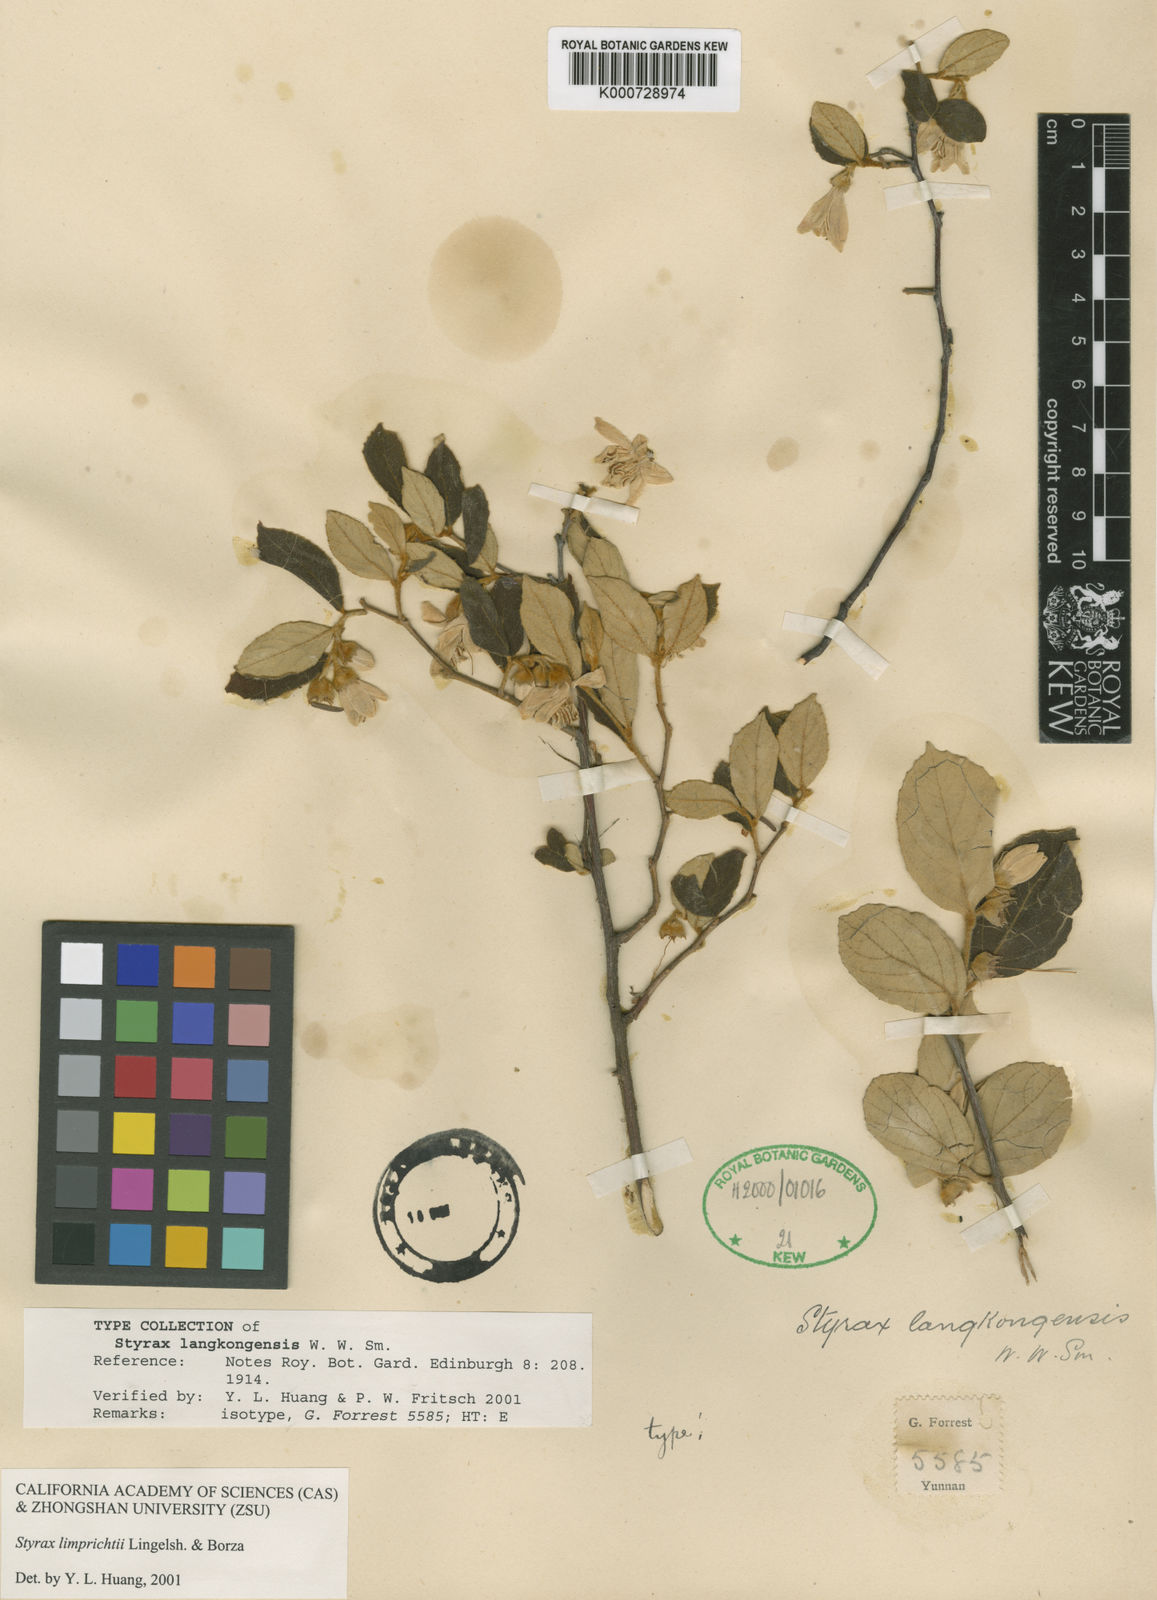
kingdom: Plantae
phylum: Tracheophyta
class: Magnoliopsida
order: Ericales
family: Styracaceae
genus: Styrax
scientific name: Styrax limprichtii
